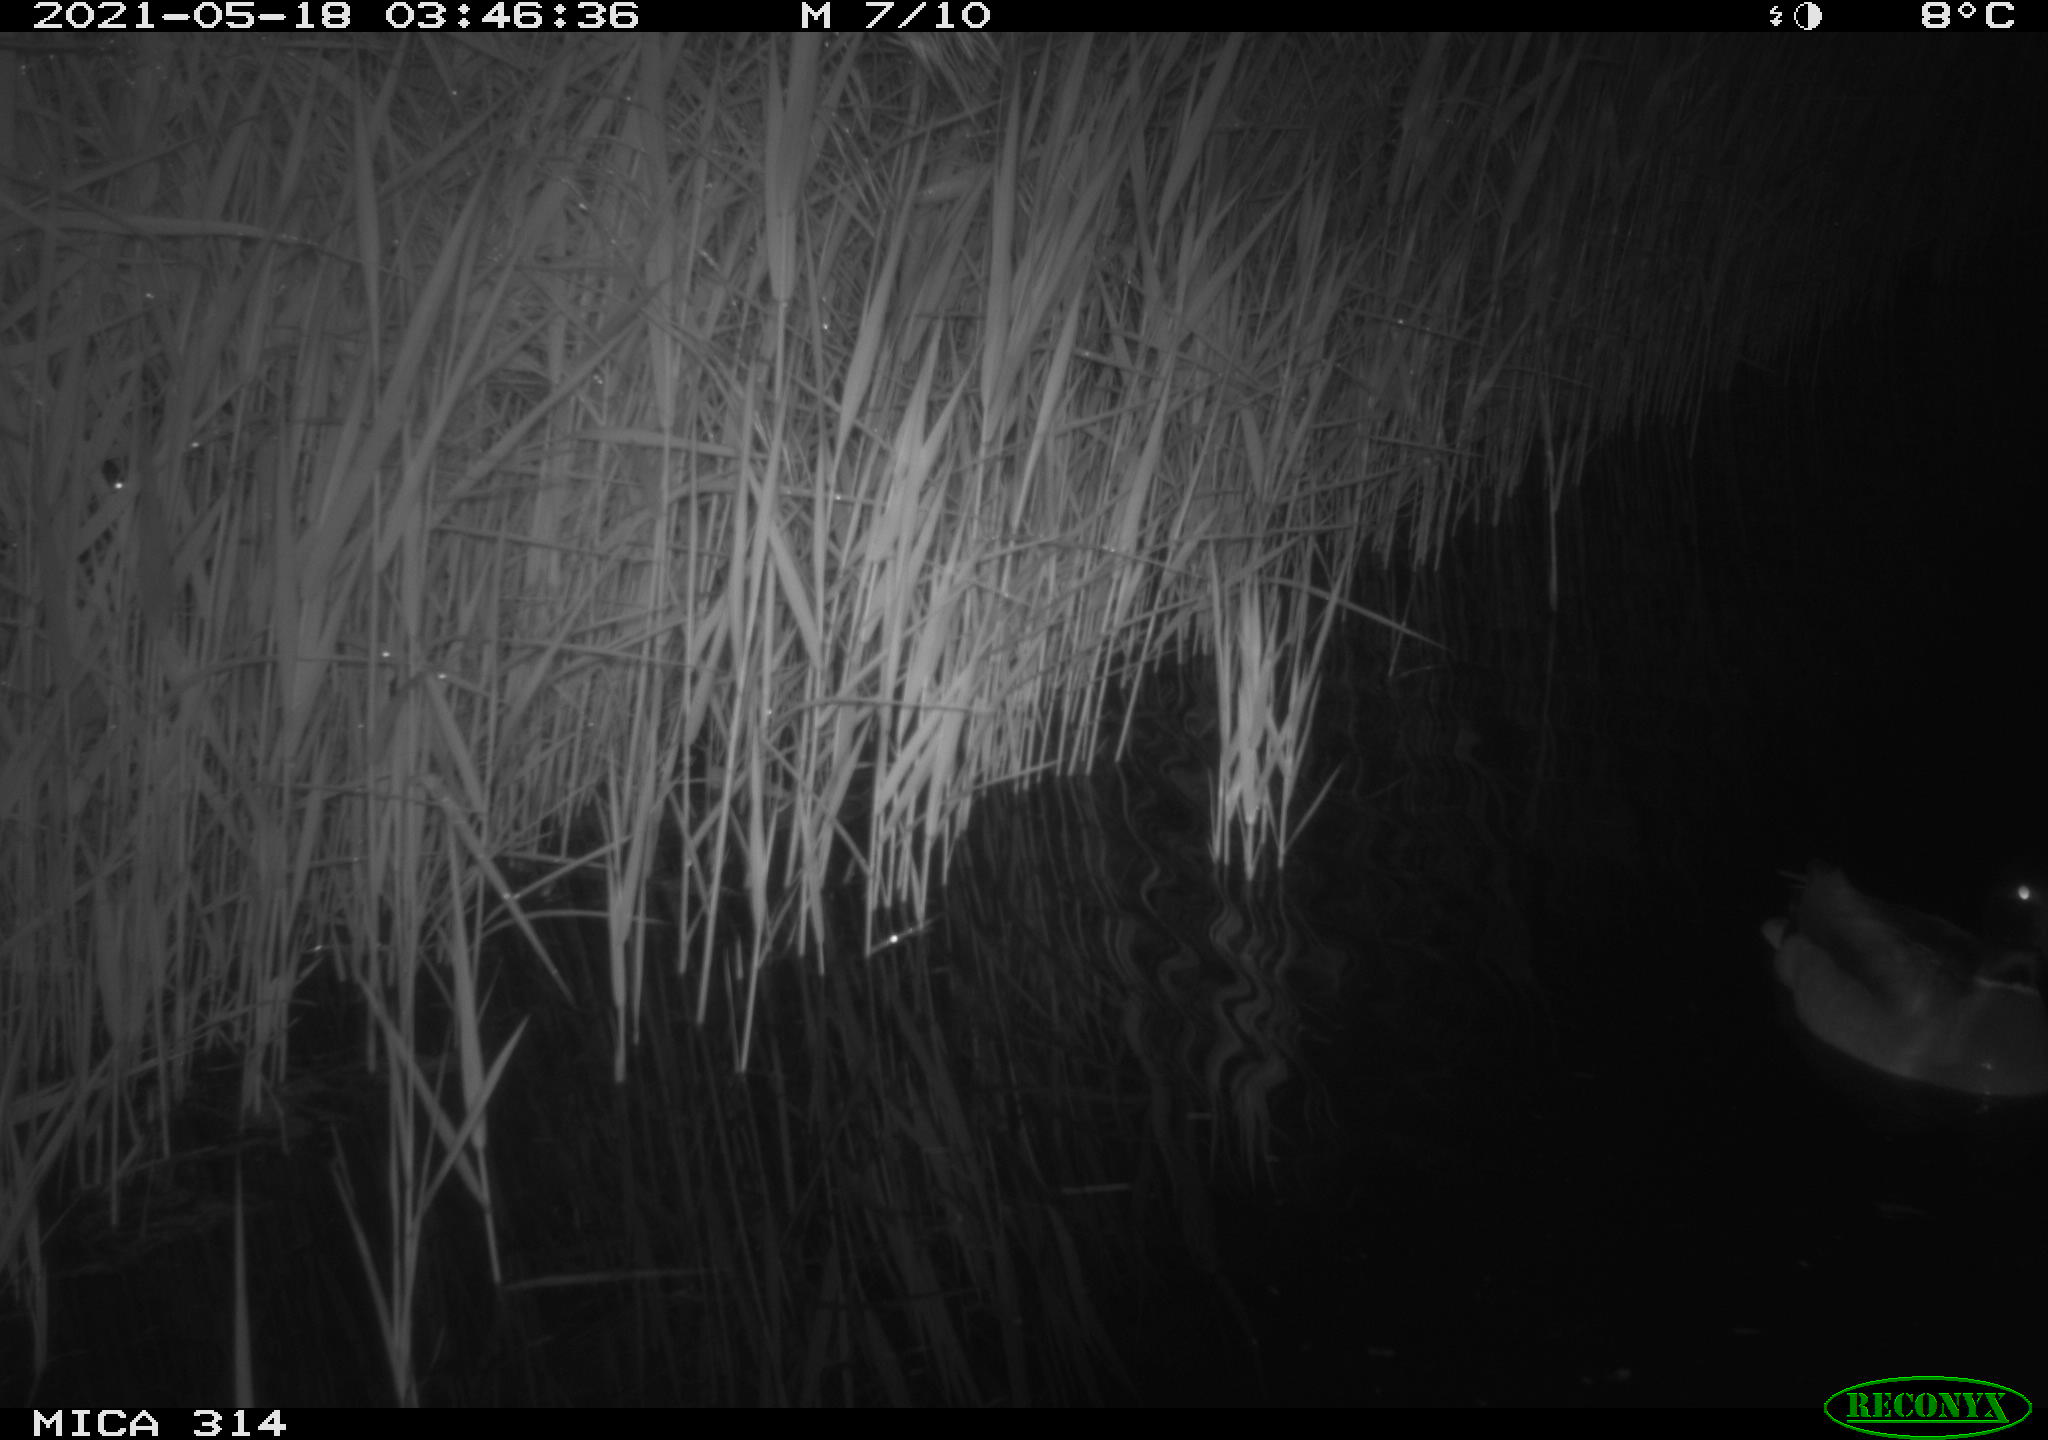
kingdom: Animalia
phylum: Chordata
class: Aves
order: Anseriformes
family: Anatidae
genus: Anas
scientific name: Anas platyrhynchos
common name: Mallard
